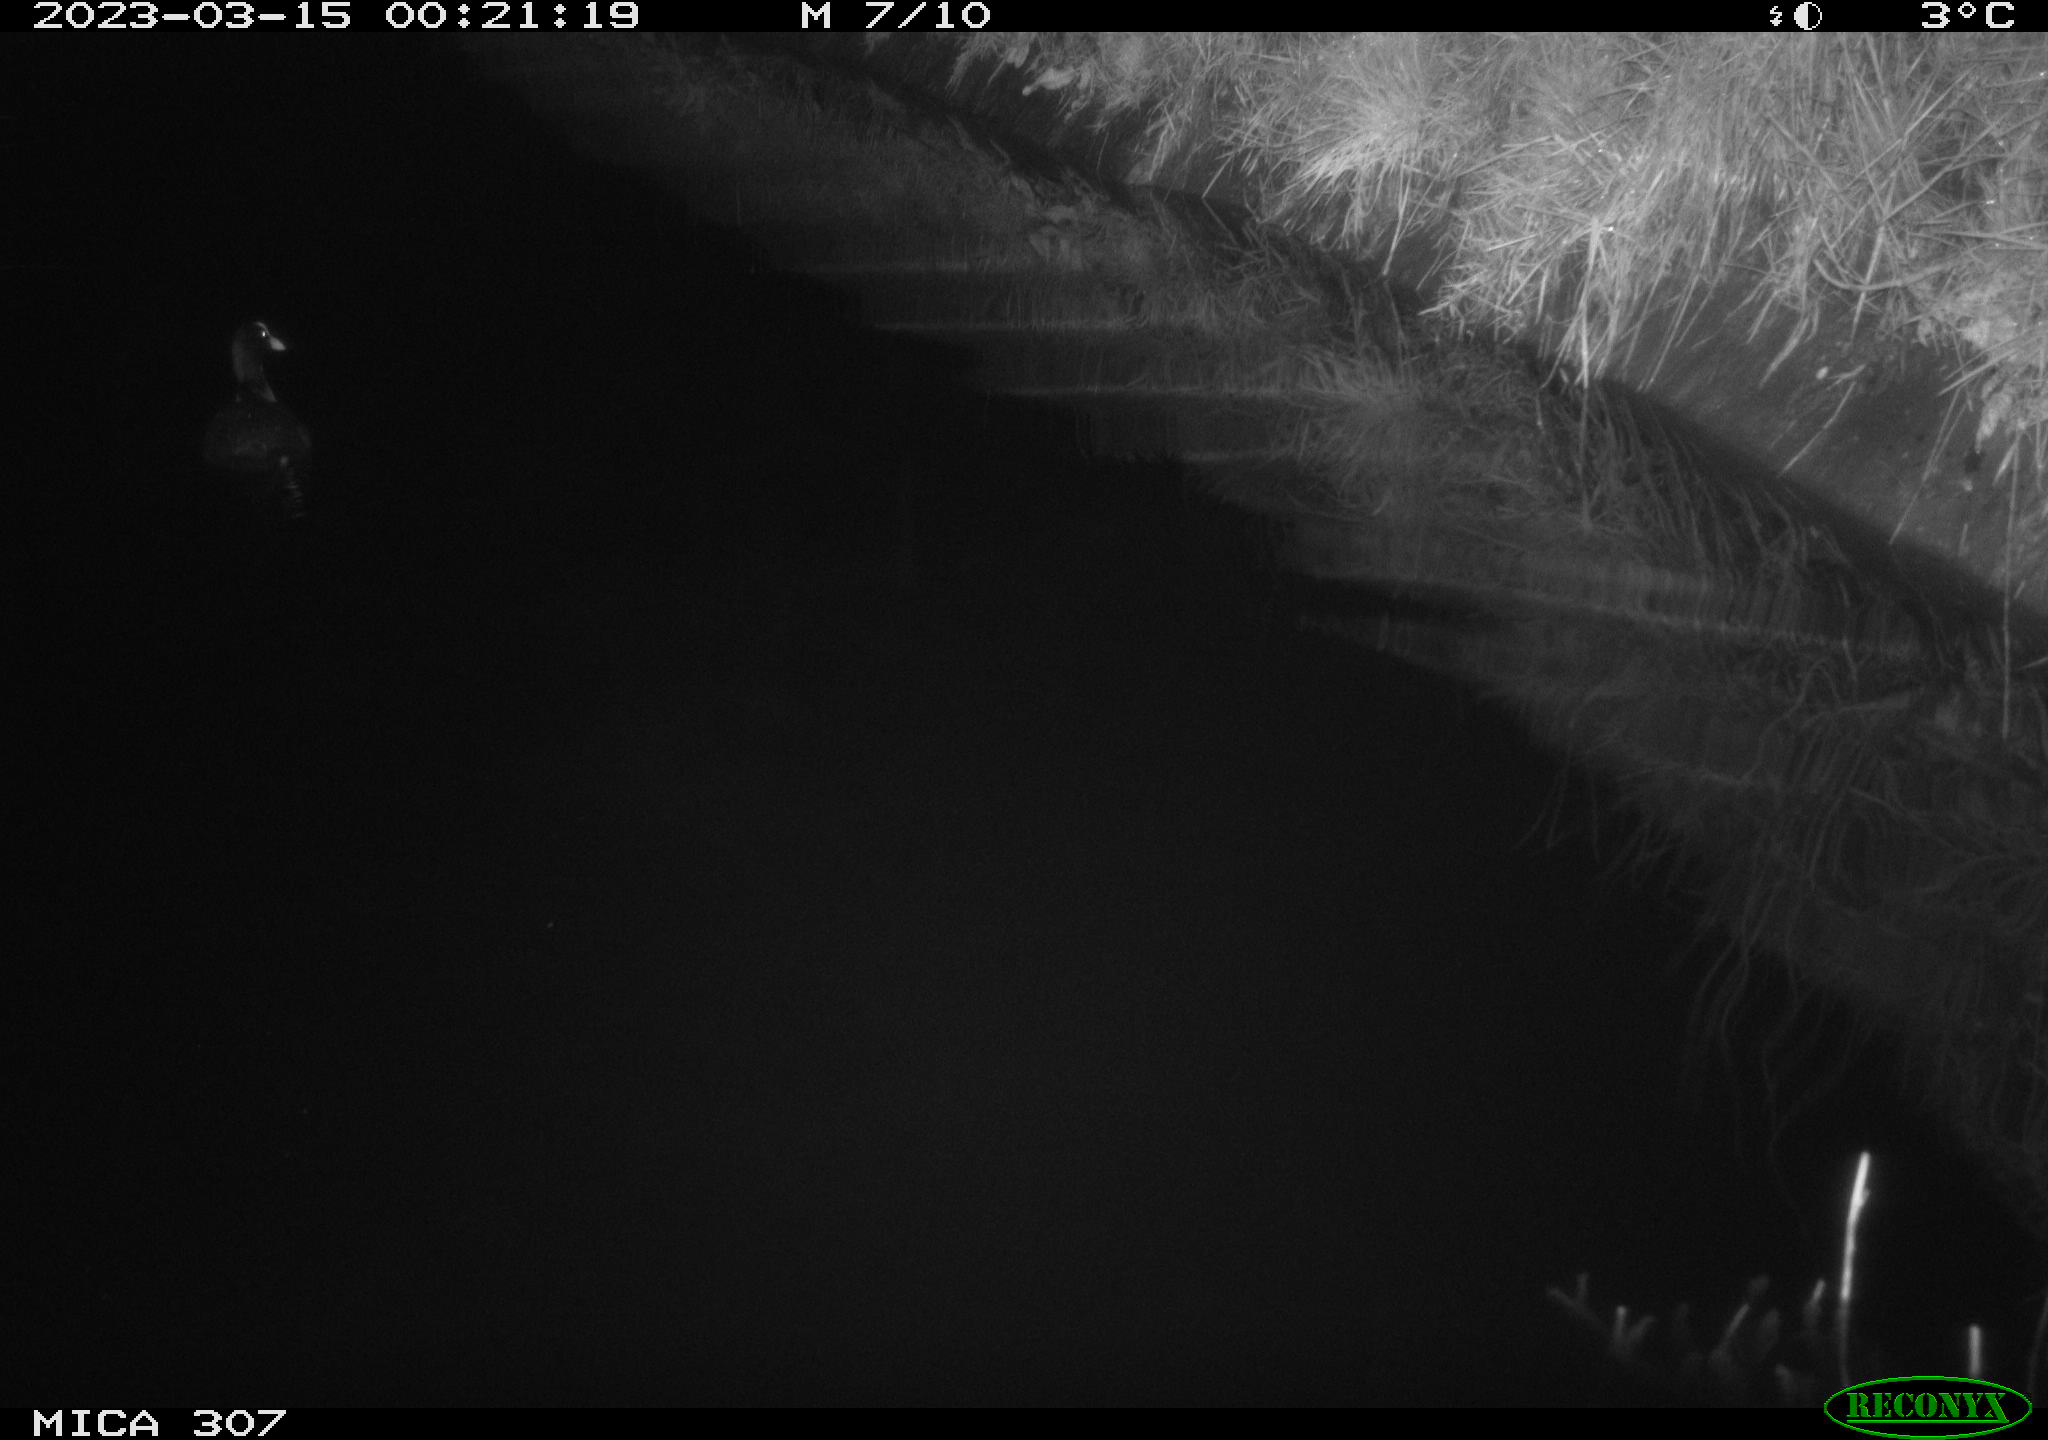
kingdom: Animalia
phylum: Chordata
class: Aves
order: Anseriformes
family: Anatidae
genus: Anas
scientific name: Anas
